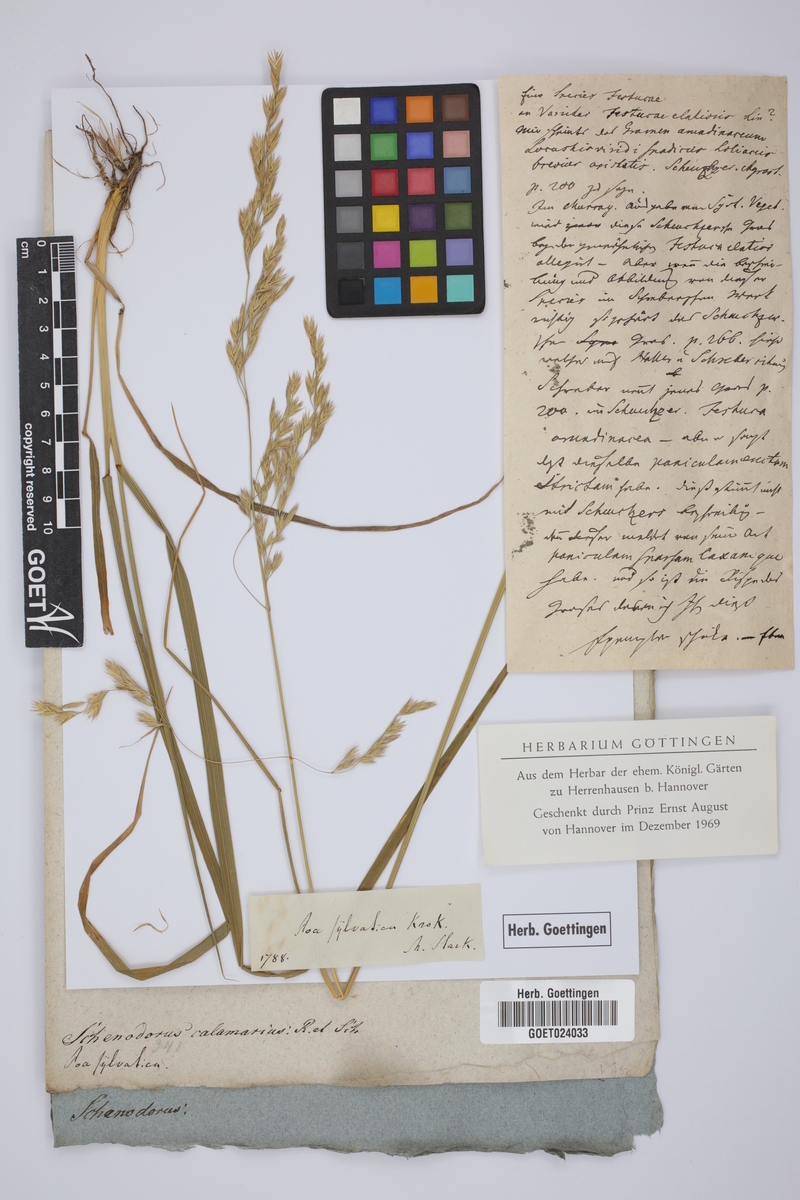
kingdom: Plantae
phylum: Tracheophyta
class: Liliopsida
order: Poales
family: Poaceae
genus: Brachypodium
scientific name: Brachypodium sylvaticum
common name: False-brome
